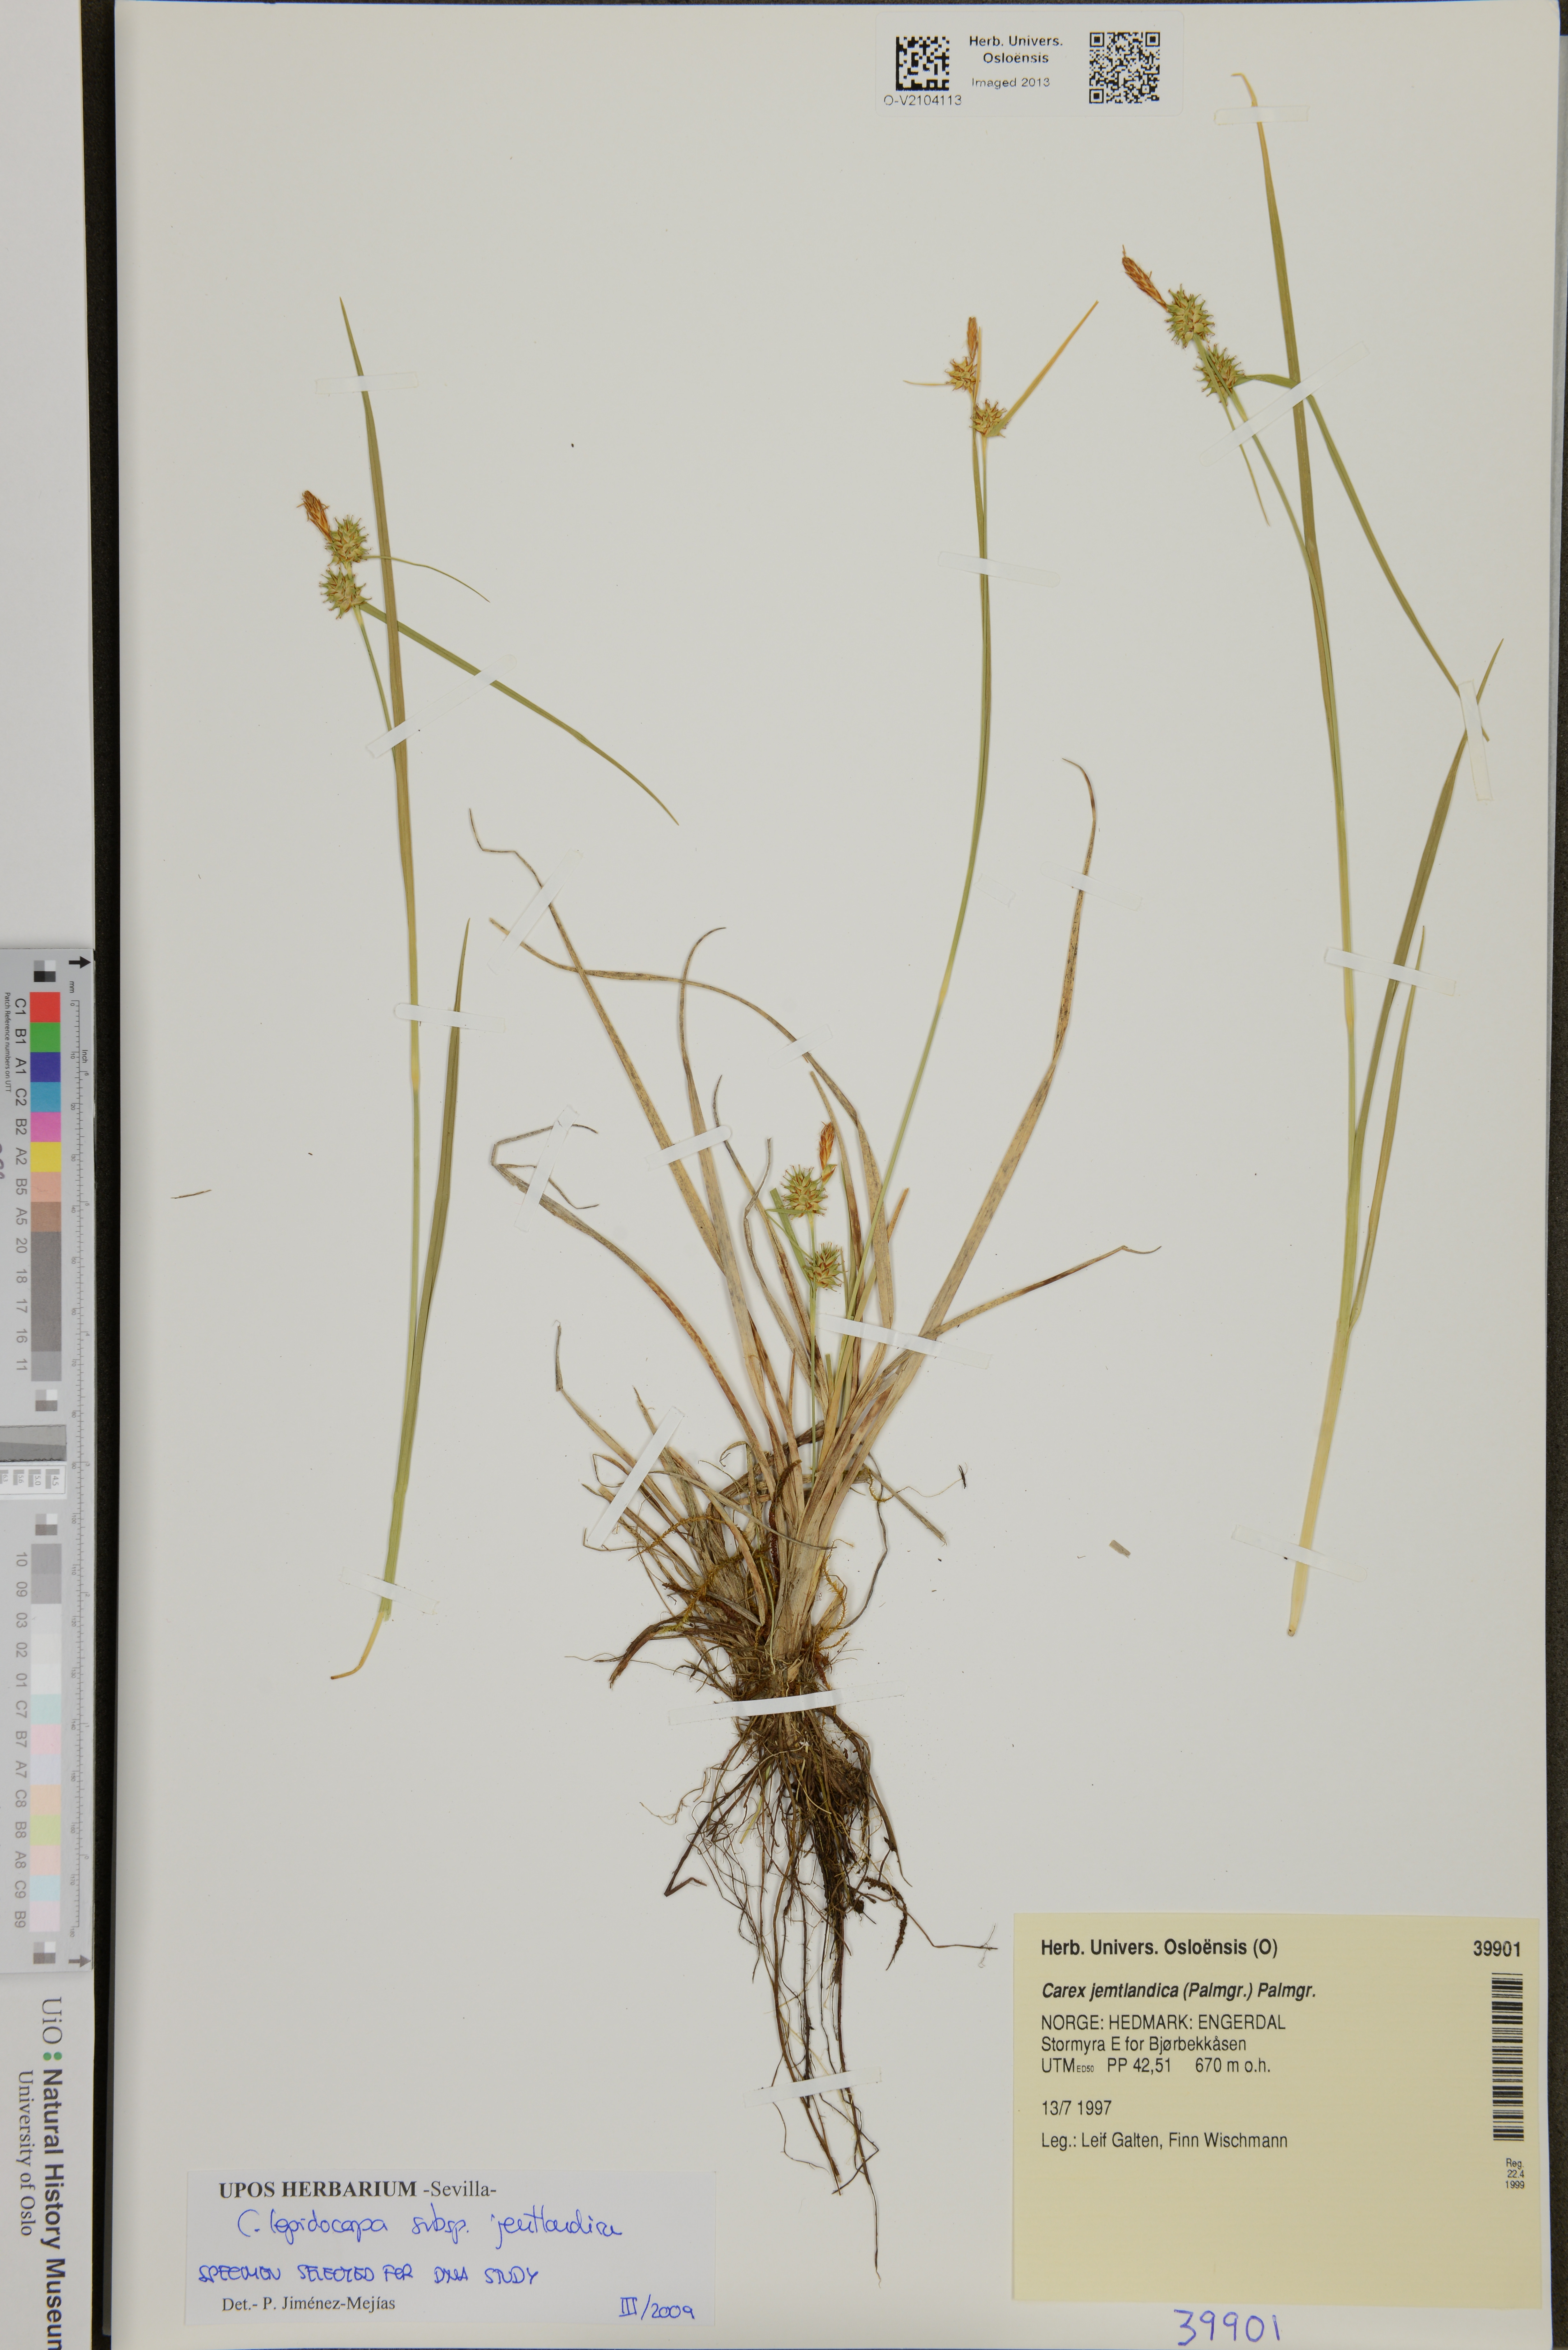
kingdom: Plantae
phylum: Tracheophyta
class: Liliopsida
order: Poales
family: Cyperaceae
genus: Carex
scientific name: Carex lepidocarpa
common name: Long-stalked yellow-sedge
